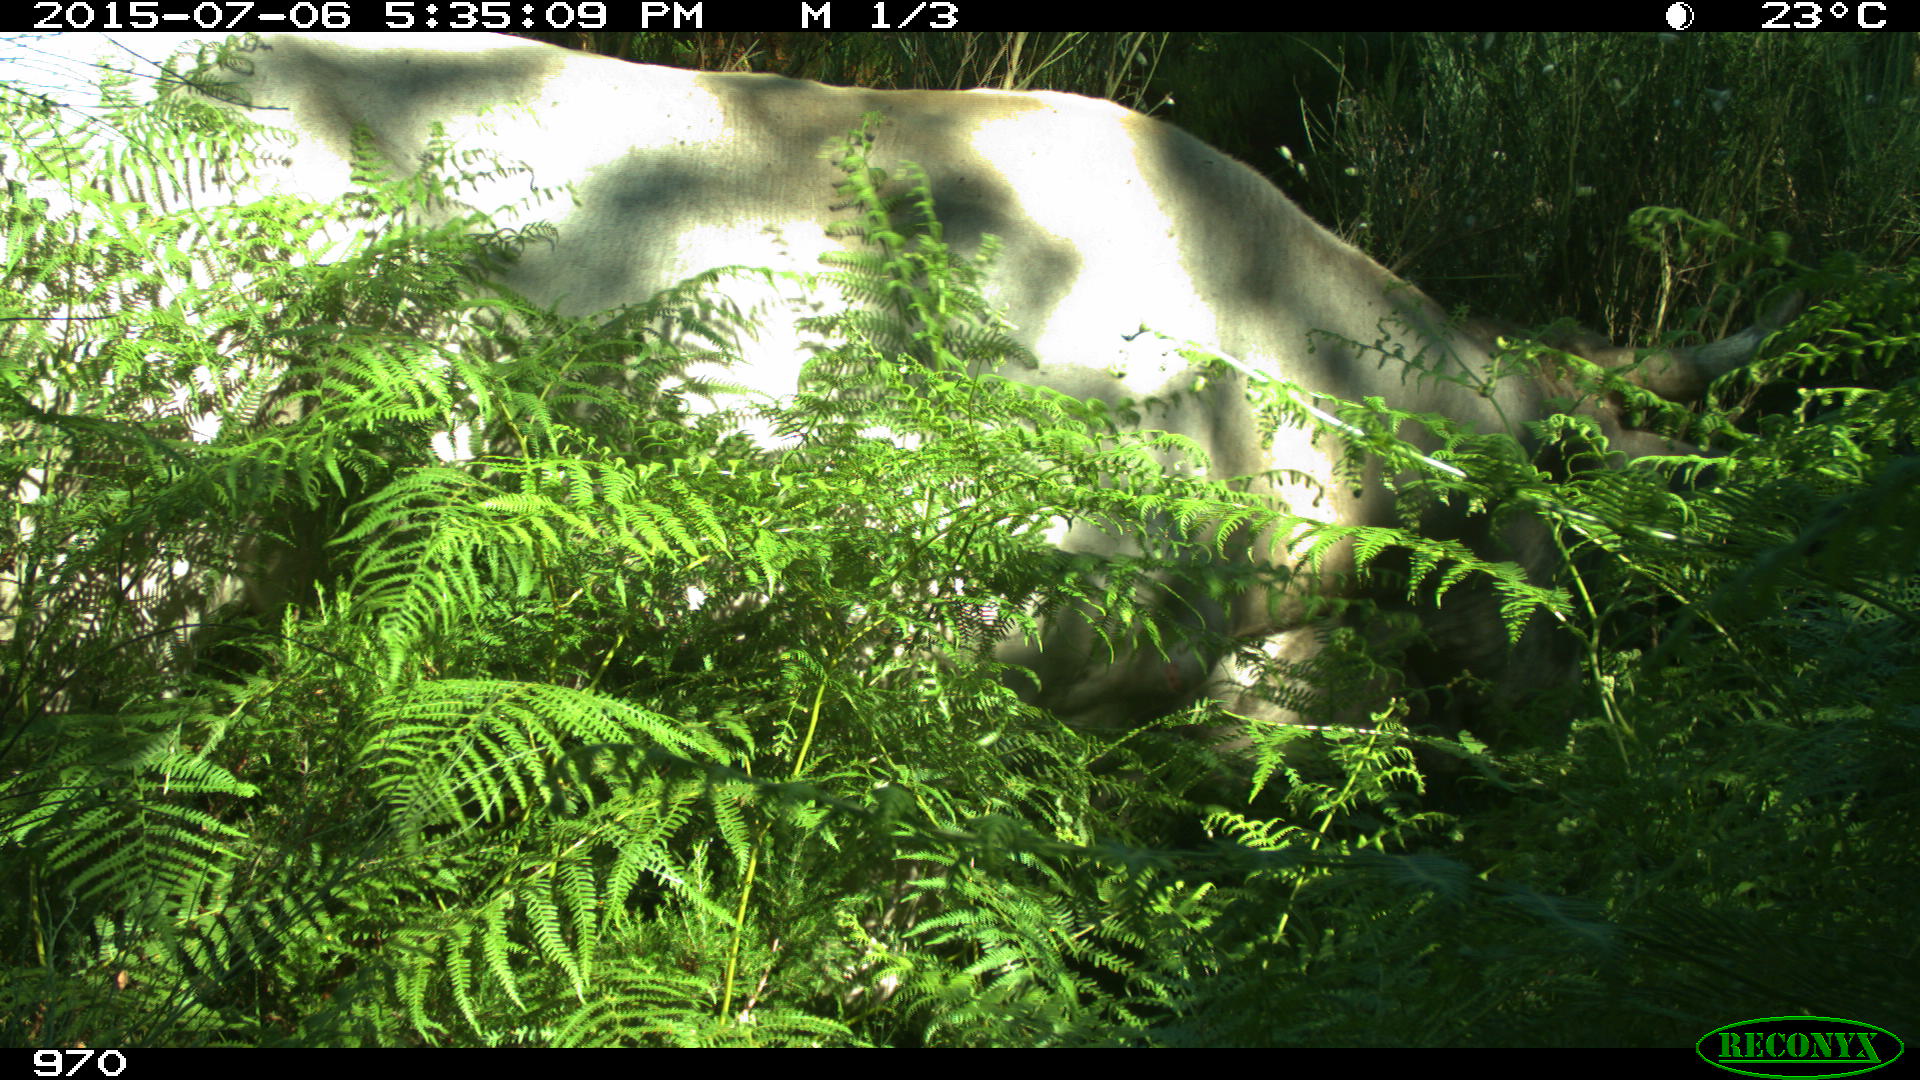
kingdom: Animalia
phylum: Chordata
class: Mammalia
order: Artiodactyla
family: Bovidae
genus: Bos
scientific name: Bos taurus
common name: Domesticated cattle
